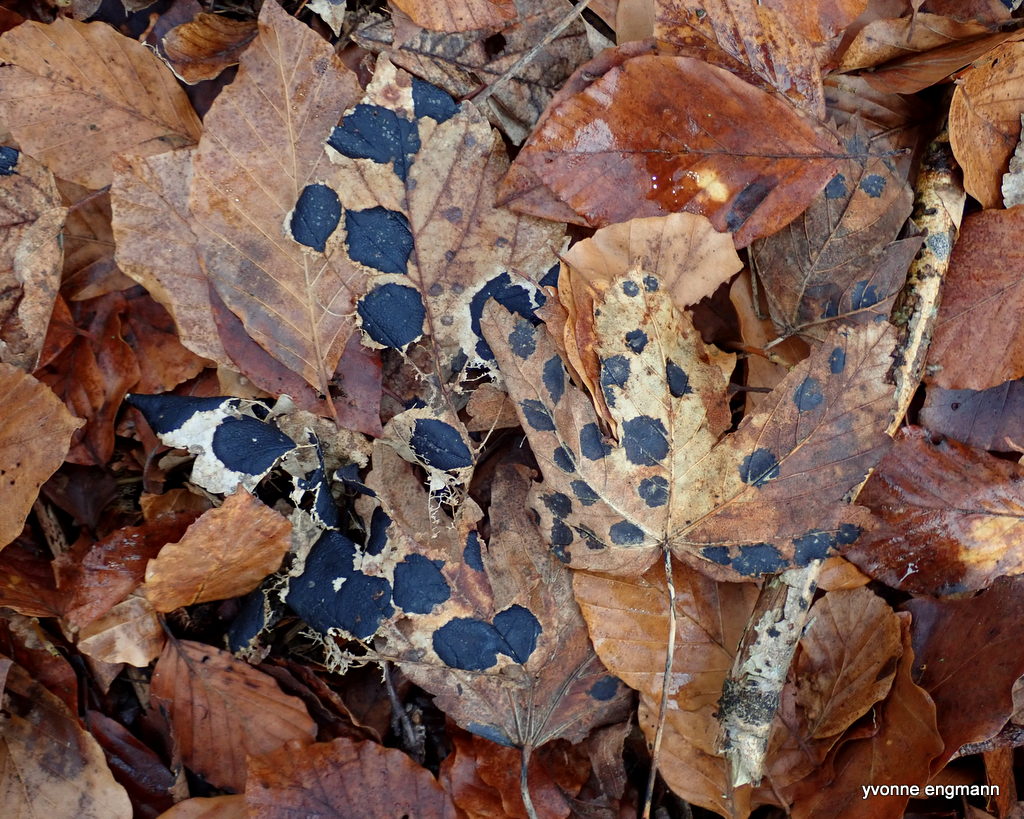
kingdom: Fungi
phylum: Ascomycota
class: Leotiomycetes
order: Rhytismatales
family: Rhytismataceae
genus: Rhytisma
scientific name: Rhytisma acerinum
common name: ahorn-rynkeplet
